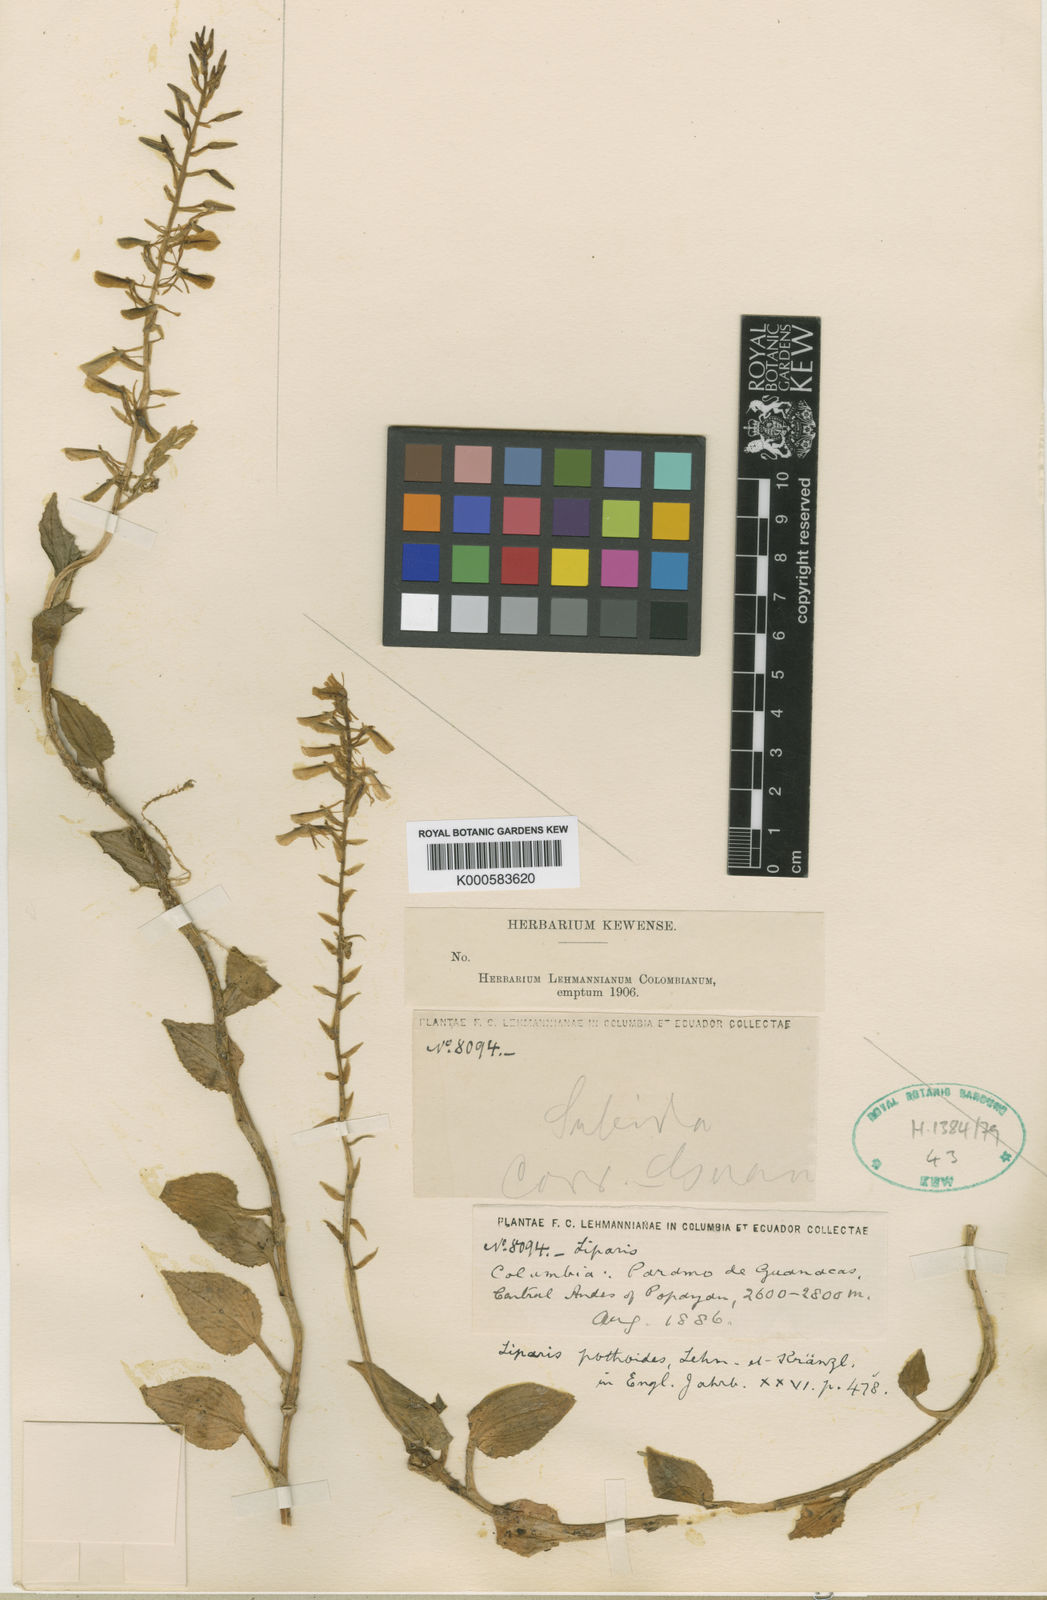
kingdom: Plantae
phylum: Tracheophyta
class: Liliopsida
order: Asparagales
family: Orchidaceae
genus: Liparis
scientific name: Liparis brachystalix
